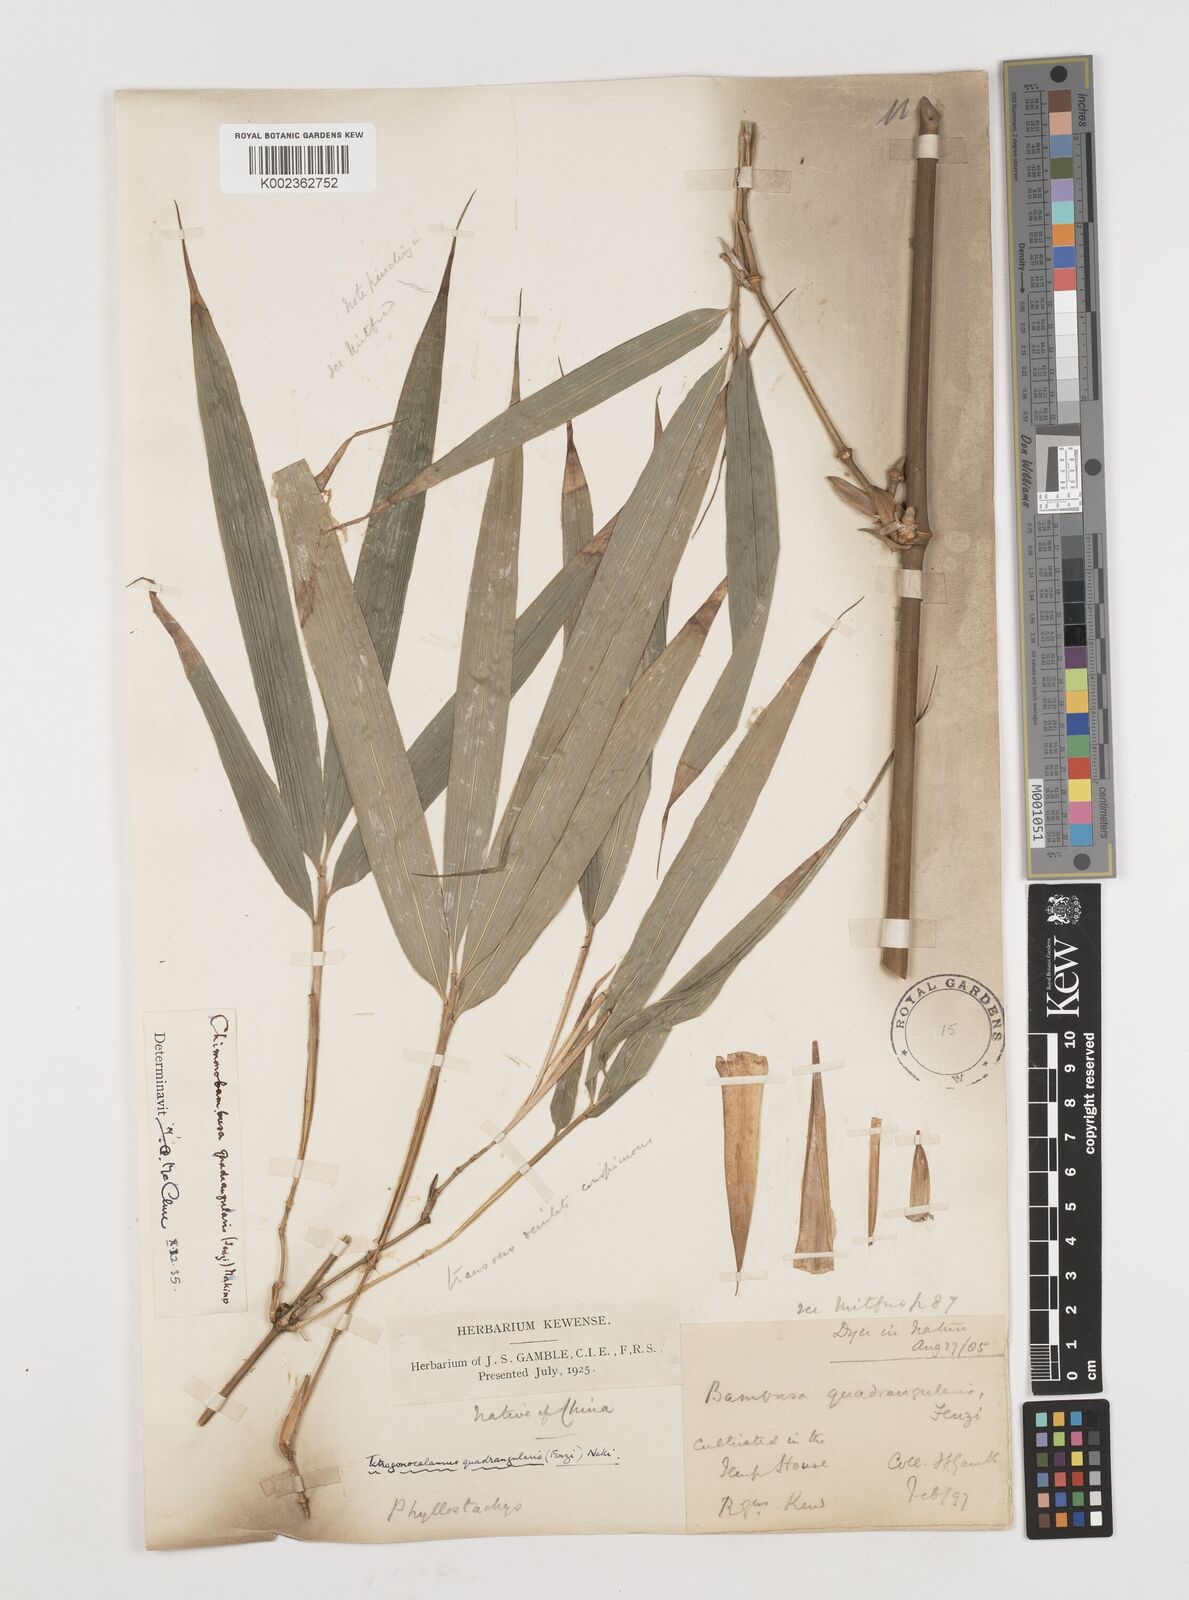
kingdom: Plantae
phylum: Tracheophyta
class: Liliopsida
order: Poales
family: Poaceae
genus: Chimonobambusa
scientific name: Chimonobambusa quadrangularis
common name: Square-stemmed bamboo
